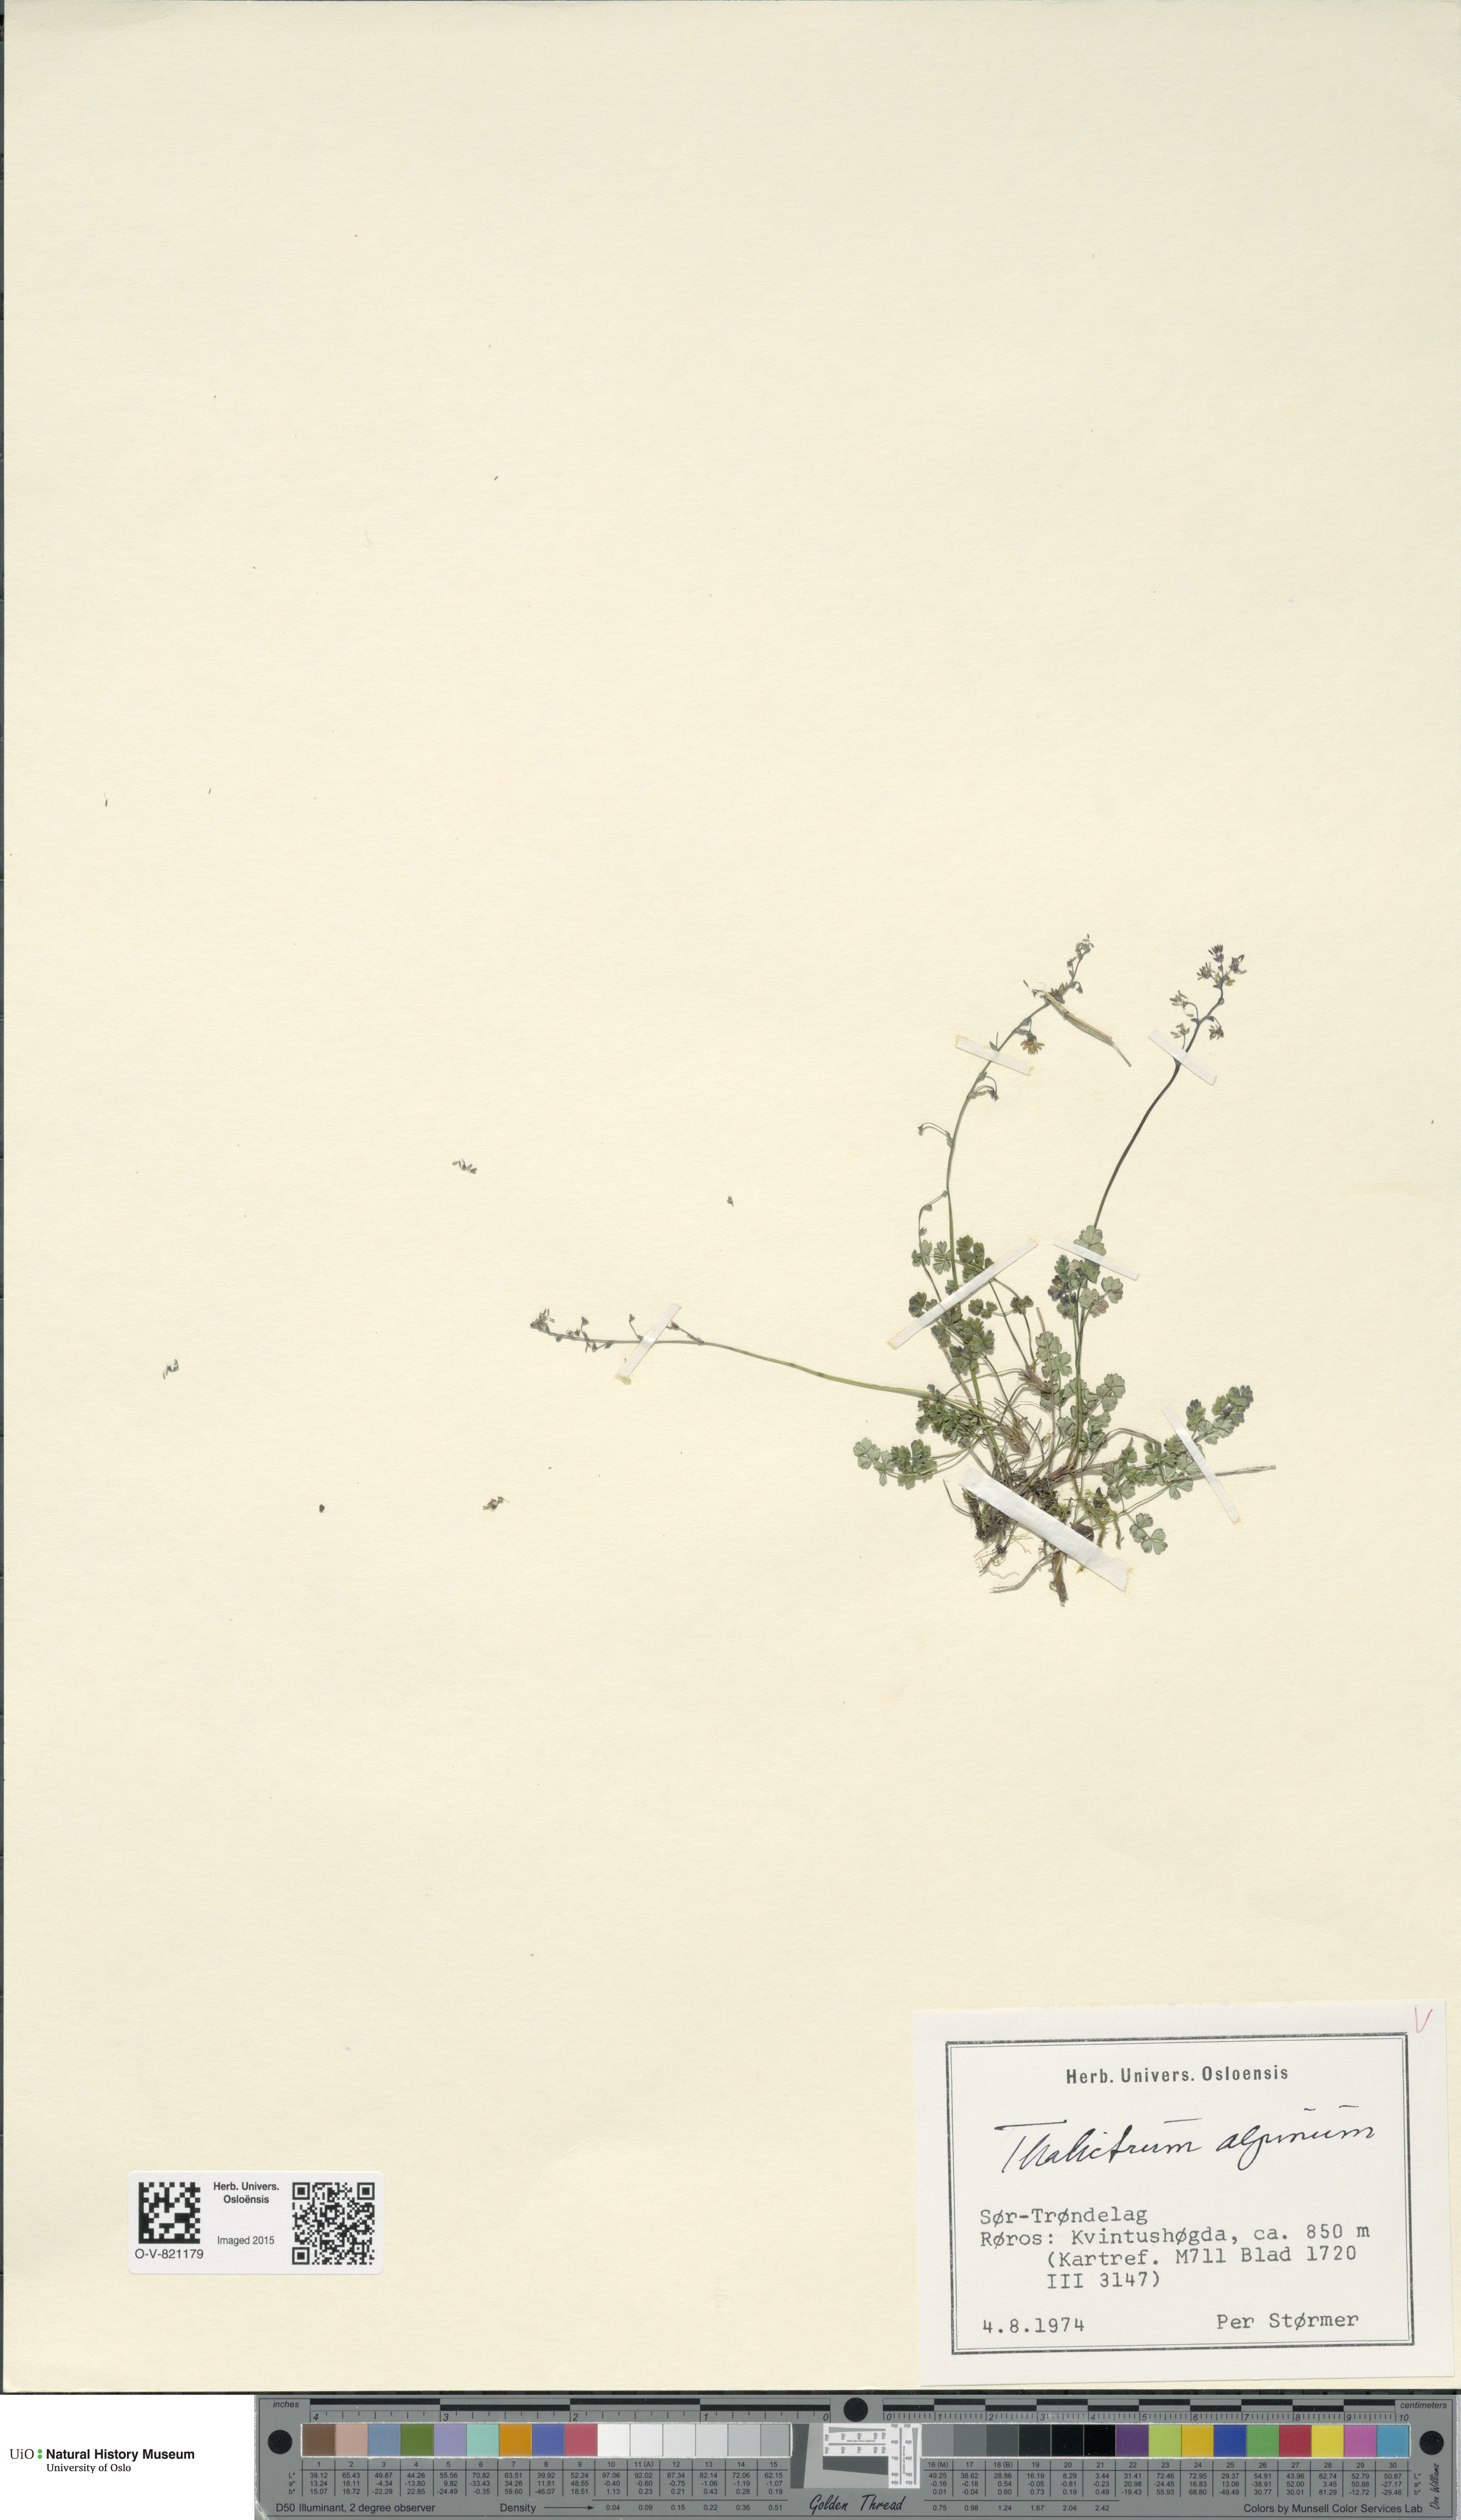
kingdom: Plantae
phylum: Tracheophyta
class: Magnoliopsida
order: Ranunculales
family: Ranunculaceae
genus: Thalictrum
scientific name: Thalictrum alpinum
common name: Alpine meadow-rue
